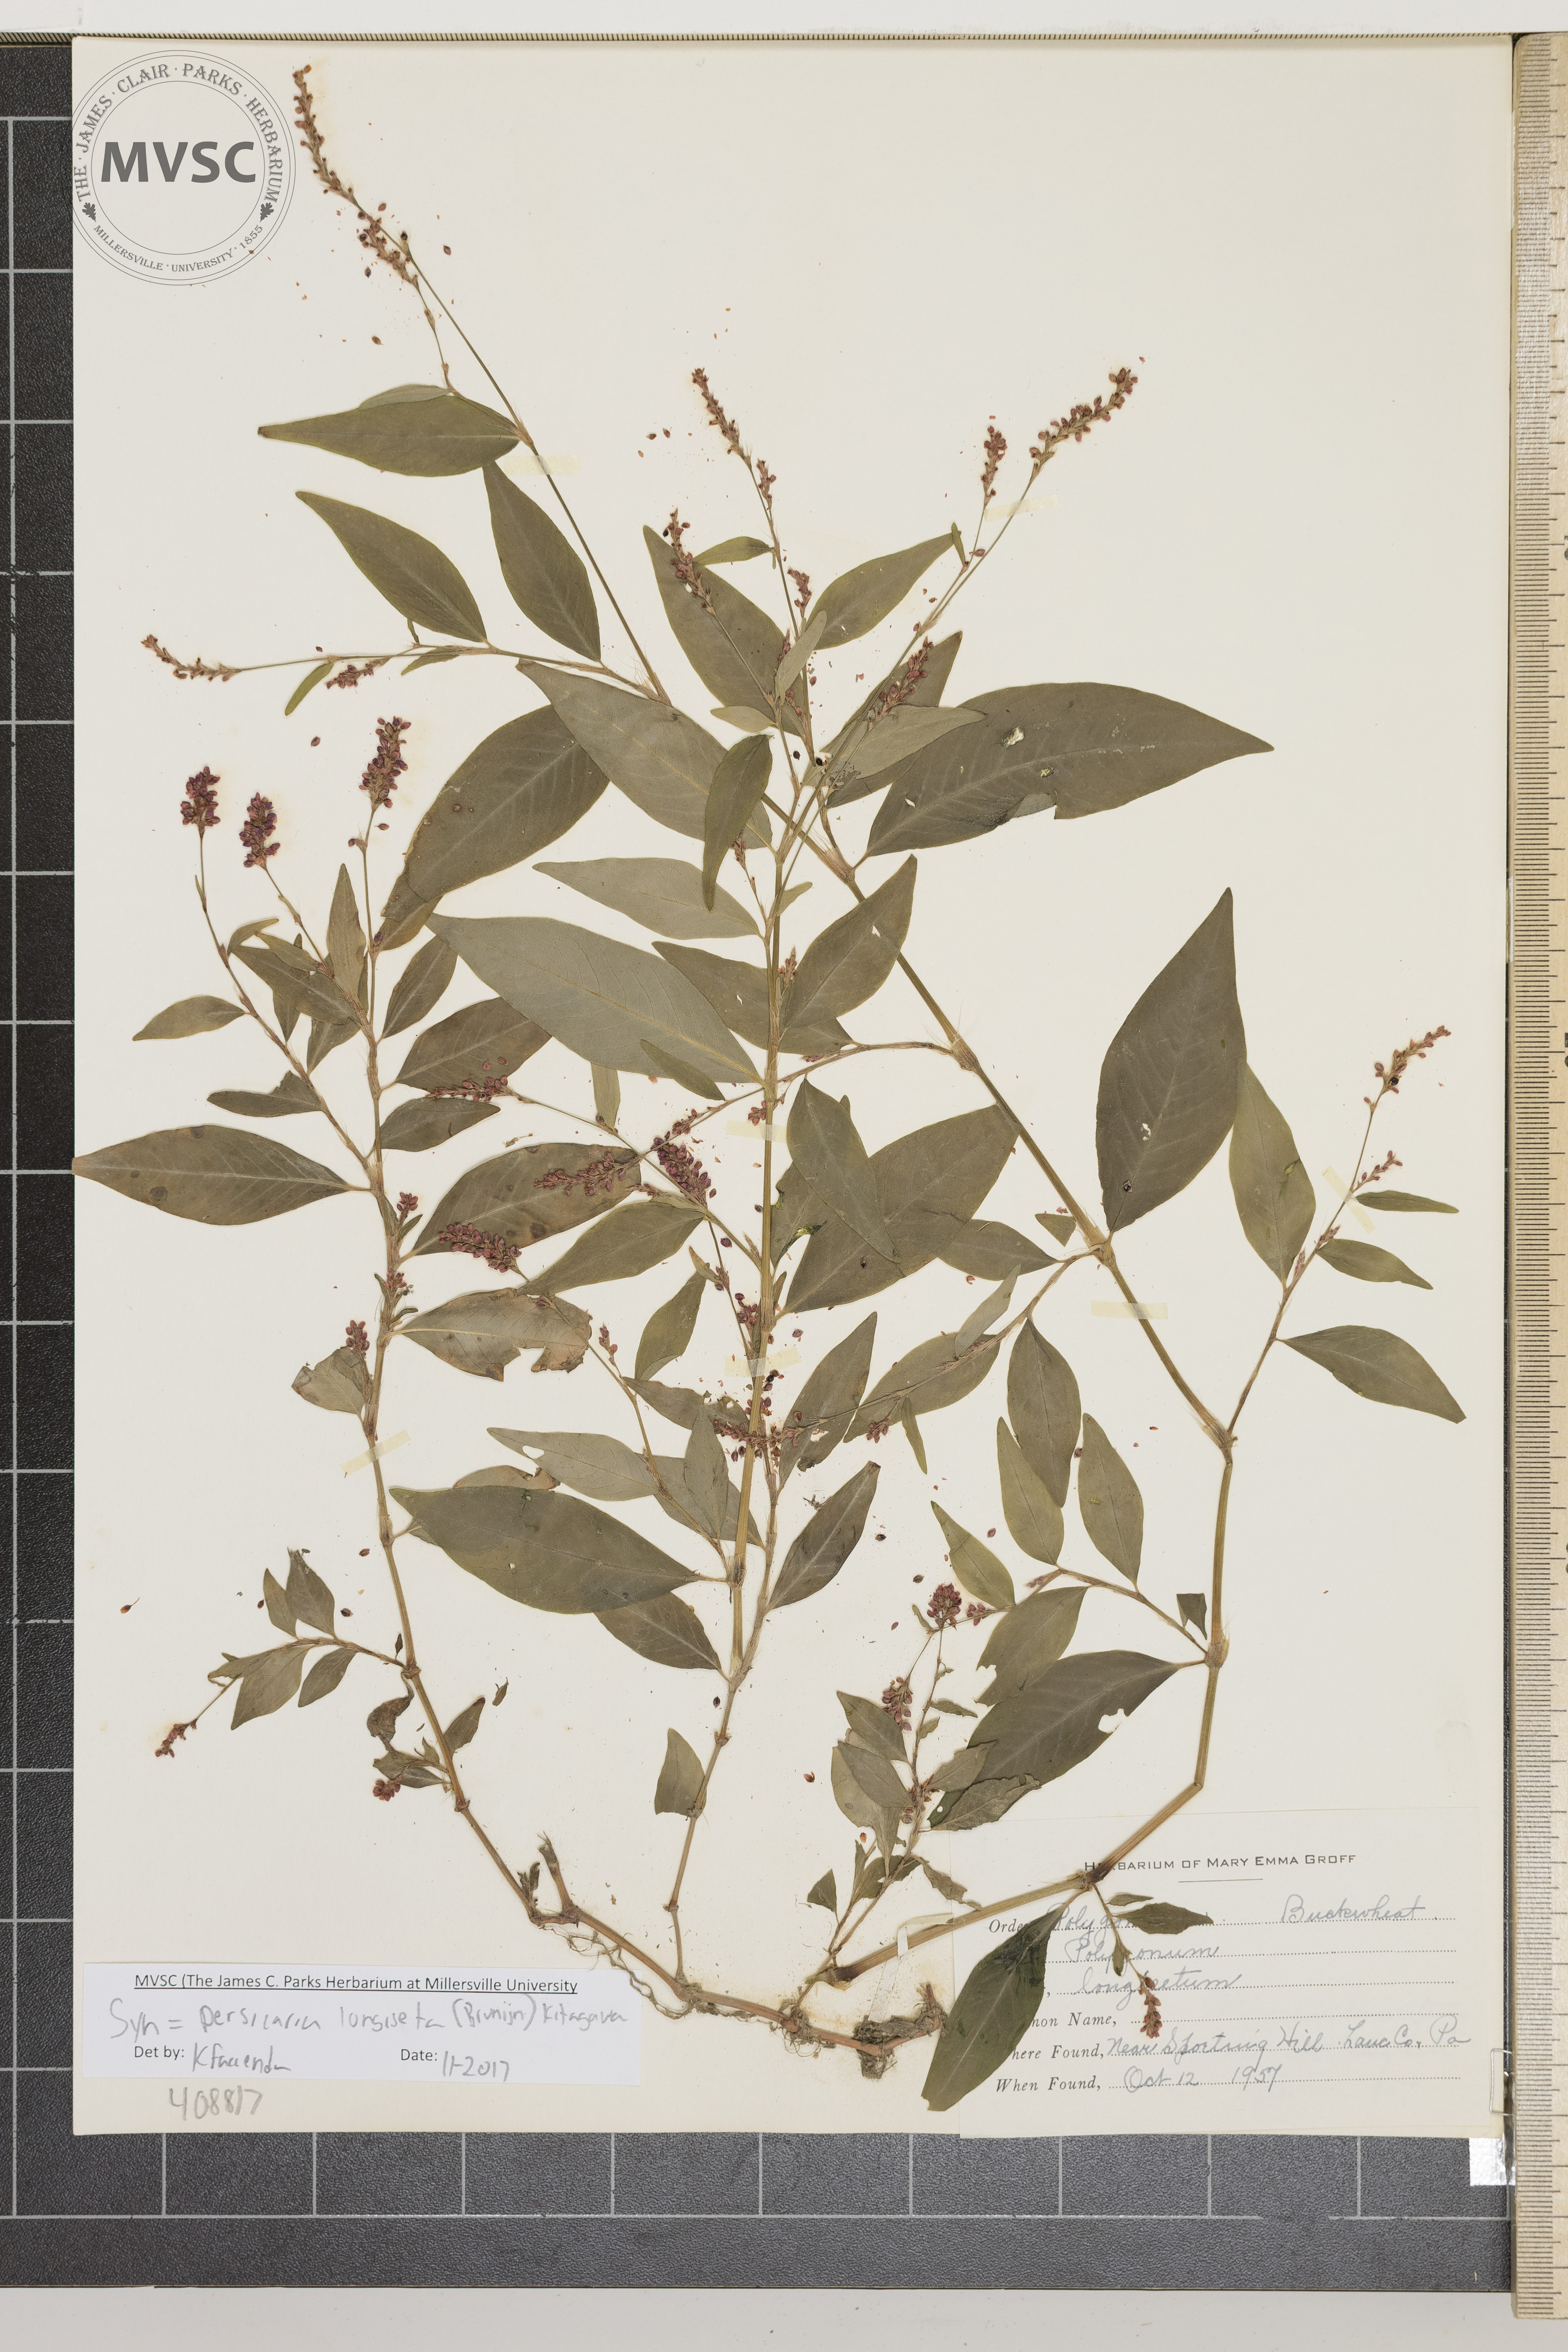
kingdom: Plantae
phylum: Tracheophyta
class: Magnoliopsida
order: Caryophyllales
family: Polygonaceae
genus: Persicaria
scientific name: Persicaria longiseta
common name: Bristly lady's-thumb
